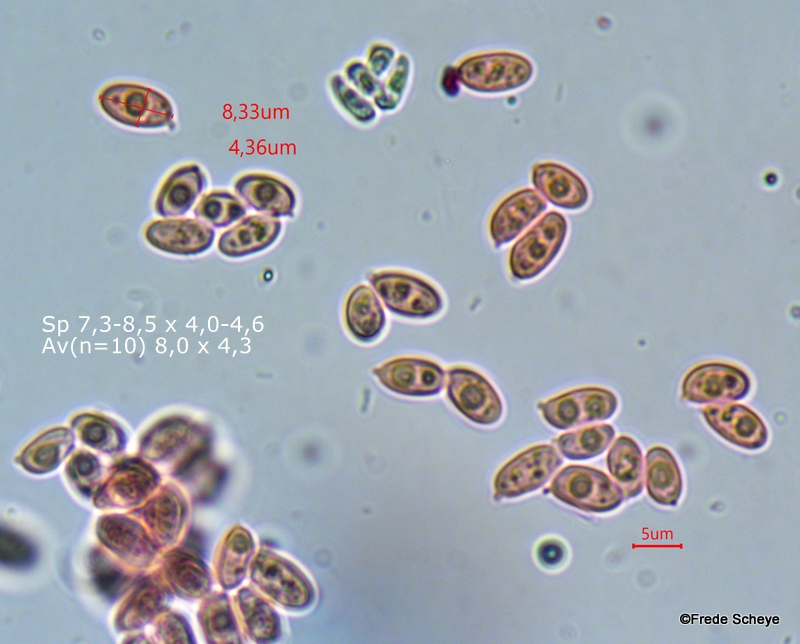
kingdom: Fungi
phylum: Basidiomycota
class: Agaricomycetes
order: Agaricales
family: Agaricaceae
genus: Lepiota
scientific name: Lepiota felina
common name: sortskællet parasolhat
